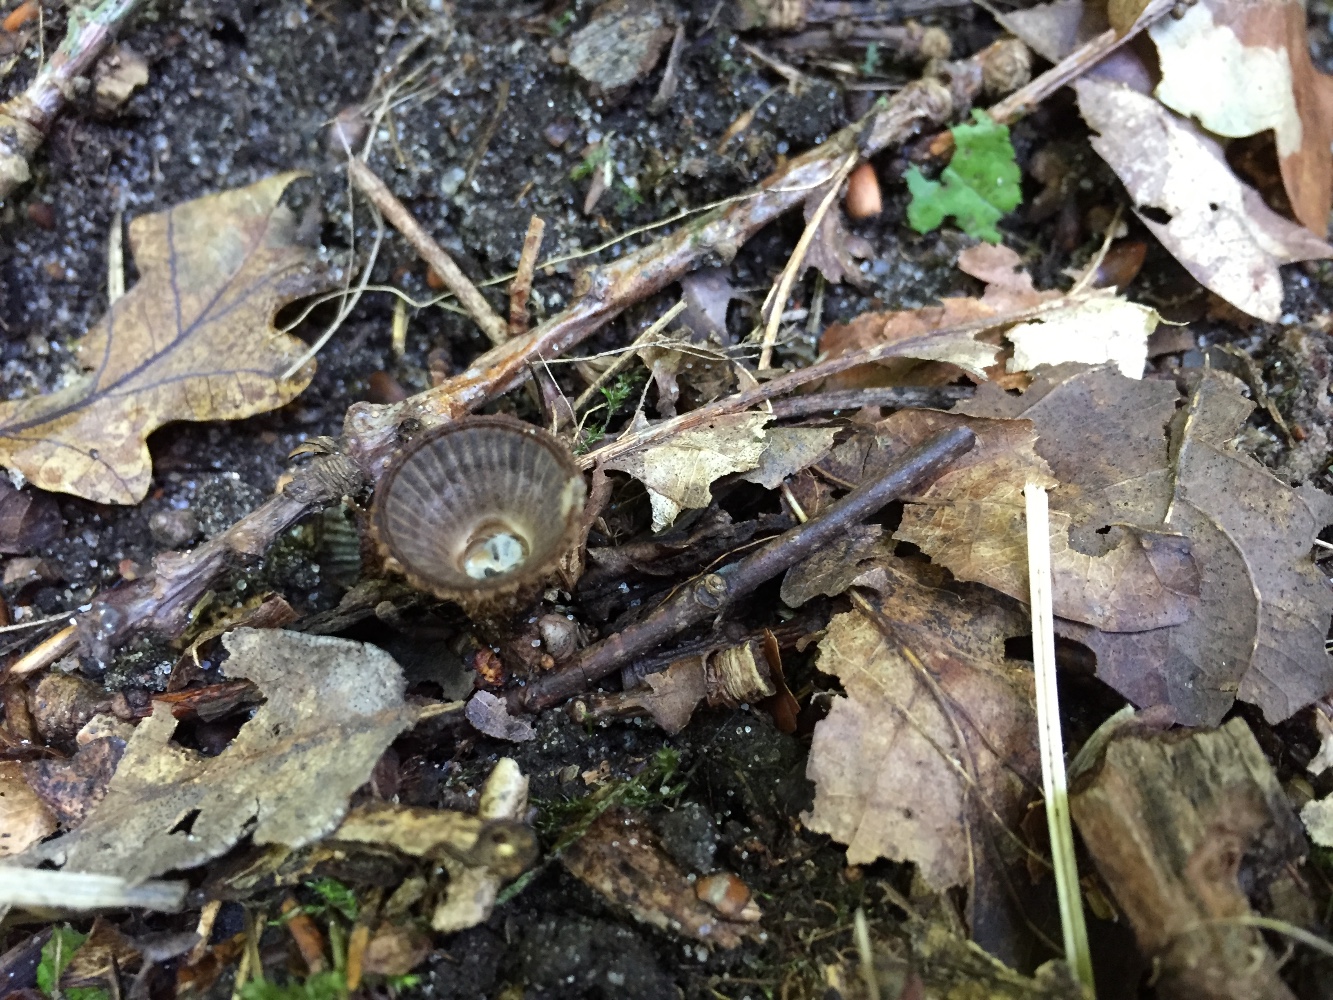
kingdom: Fungi
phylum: Basidiomycota
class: Agaricomycetes
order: Agaricales
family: Agaricaceae
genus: Cyathus
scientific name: Cyathus striatus
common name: stribet redesvamp
